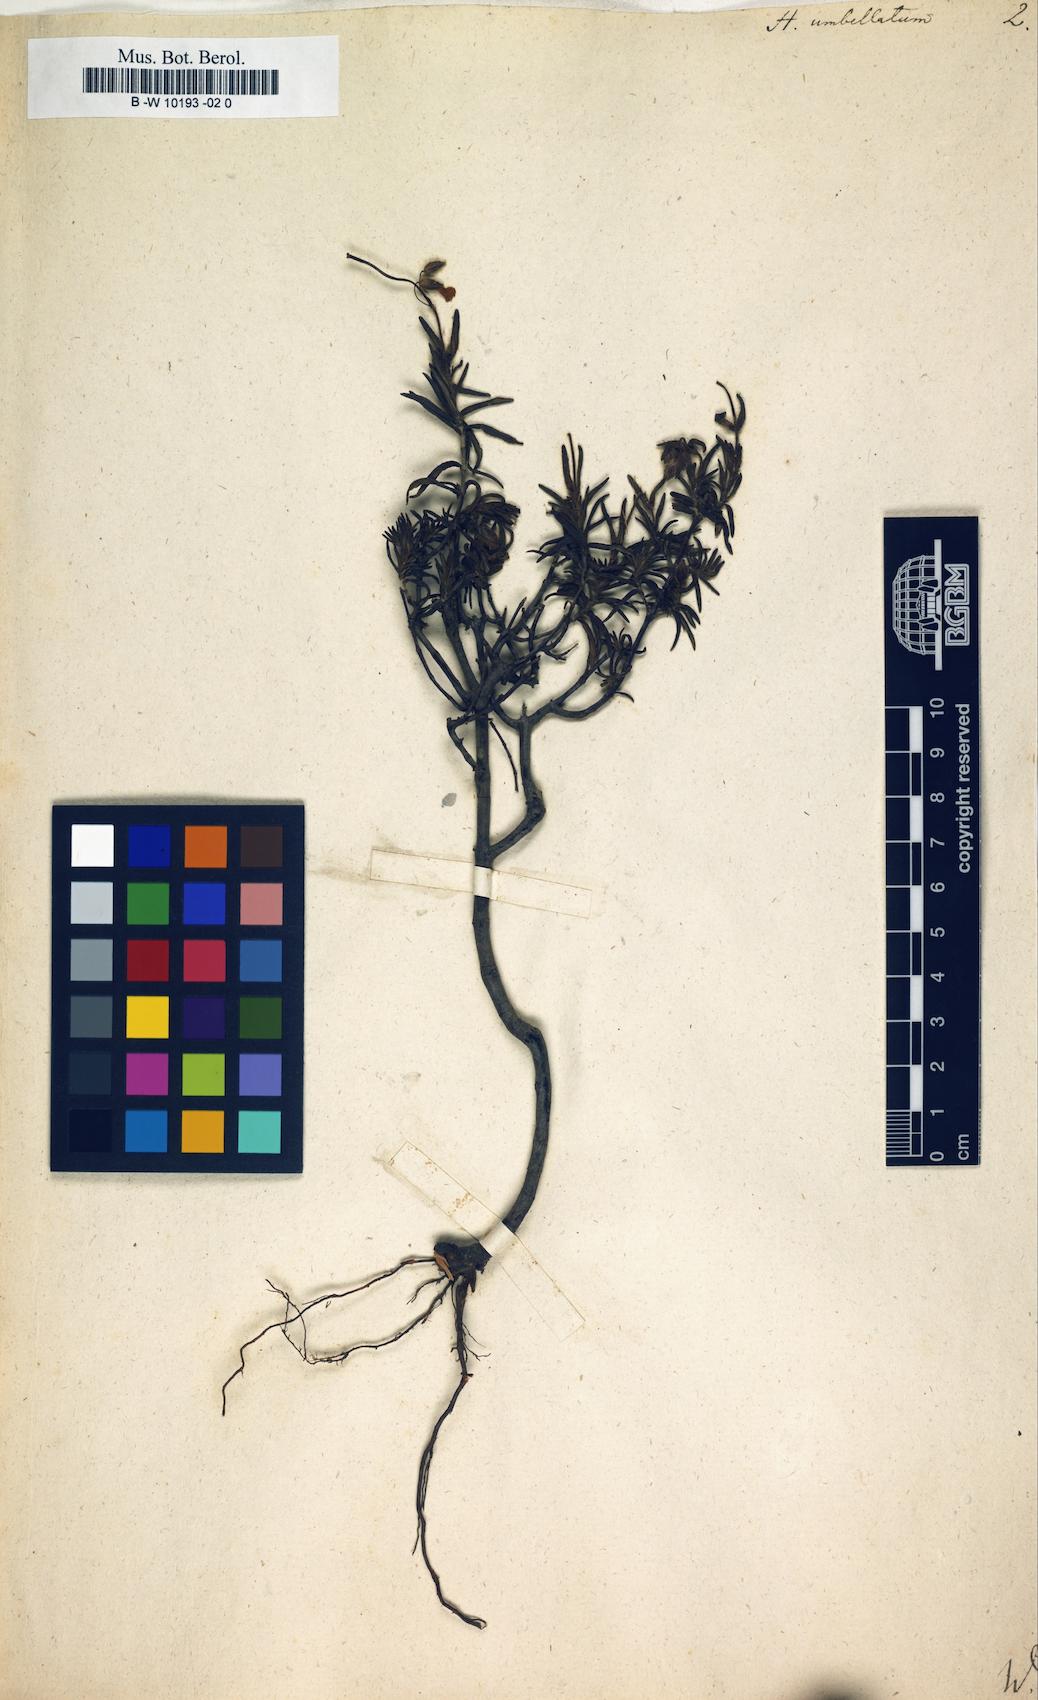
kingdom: Plantae
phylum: Tracheophyta
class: Magnoliopsida
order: Malvales
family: Cistaceae
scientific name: Cistaceae
